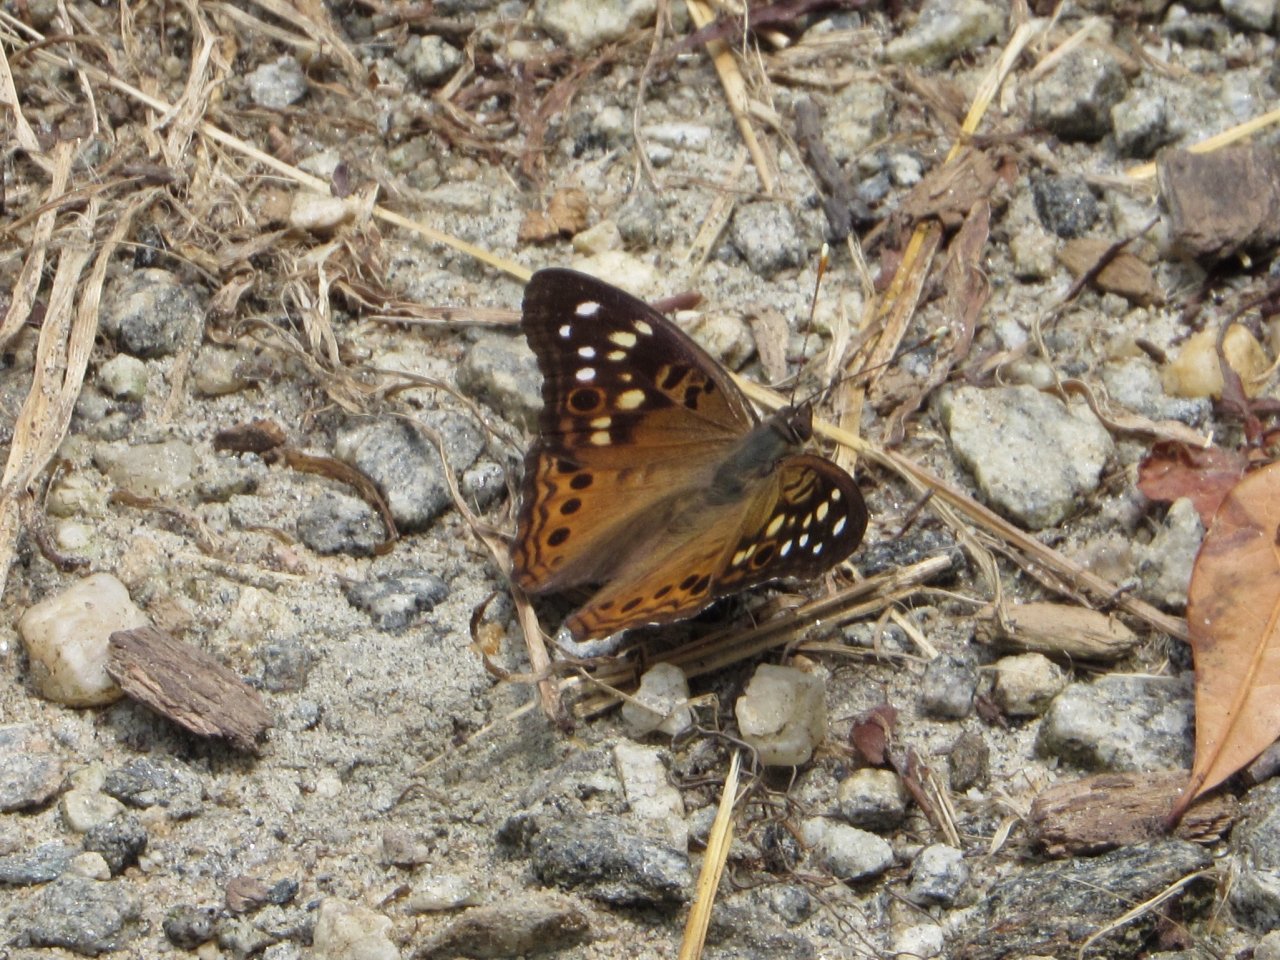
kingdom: Animalia
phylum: Arthropoda
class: Insecta
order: Lepidoptera
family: Nymphalidae
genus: Asterocampa
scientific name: Asterocampa celtis
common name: Hackberry Emperor
